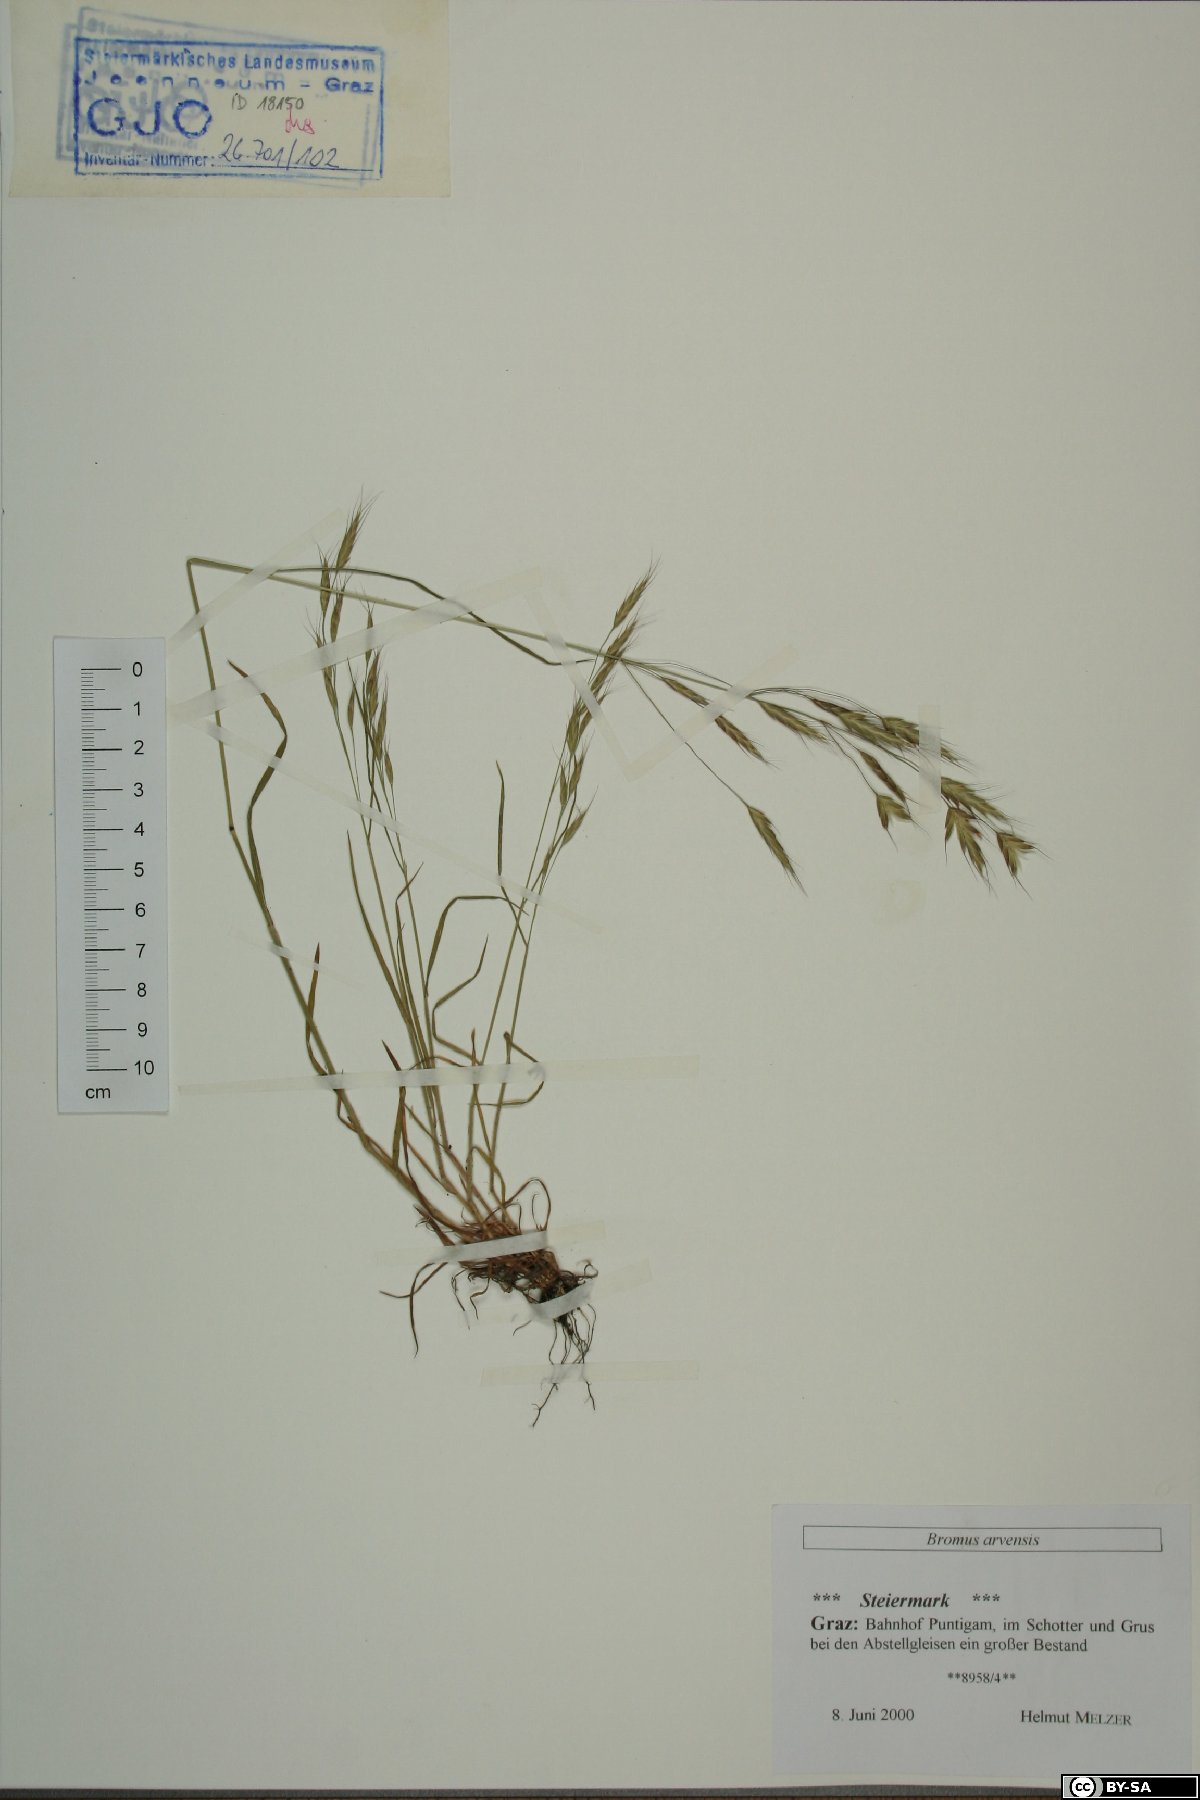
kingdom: Plantae
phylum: Tracheophyta
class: Liliopsida
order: Poales
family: Poaceae
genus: Bromus
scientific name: Bromus arvensis
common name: Field brome
